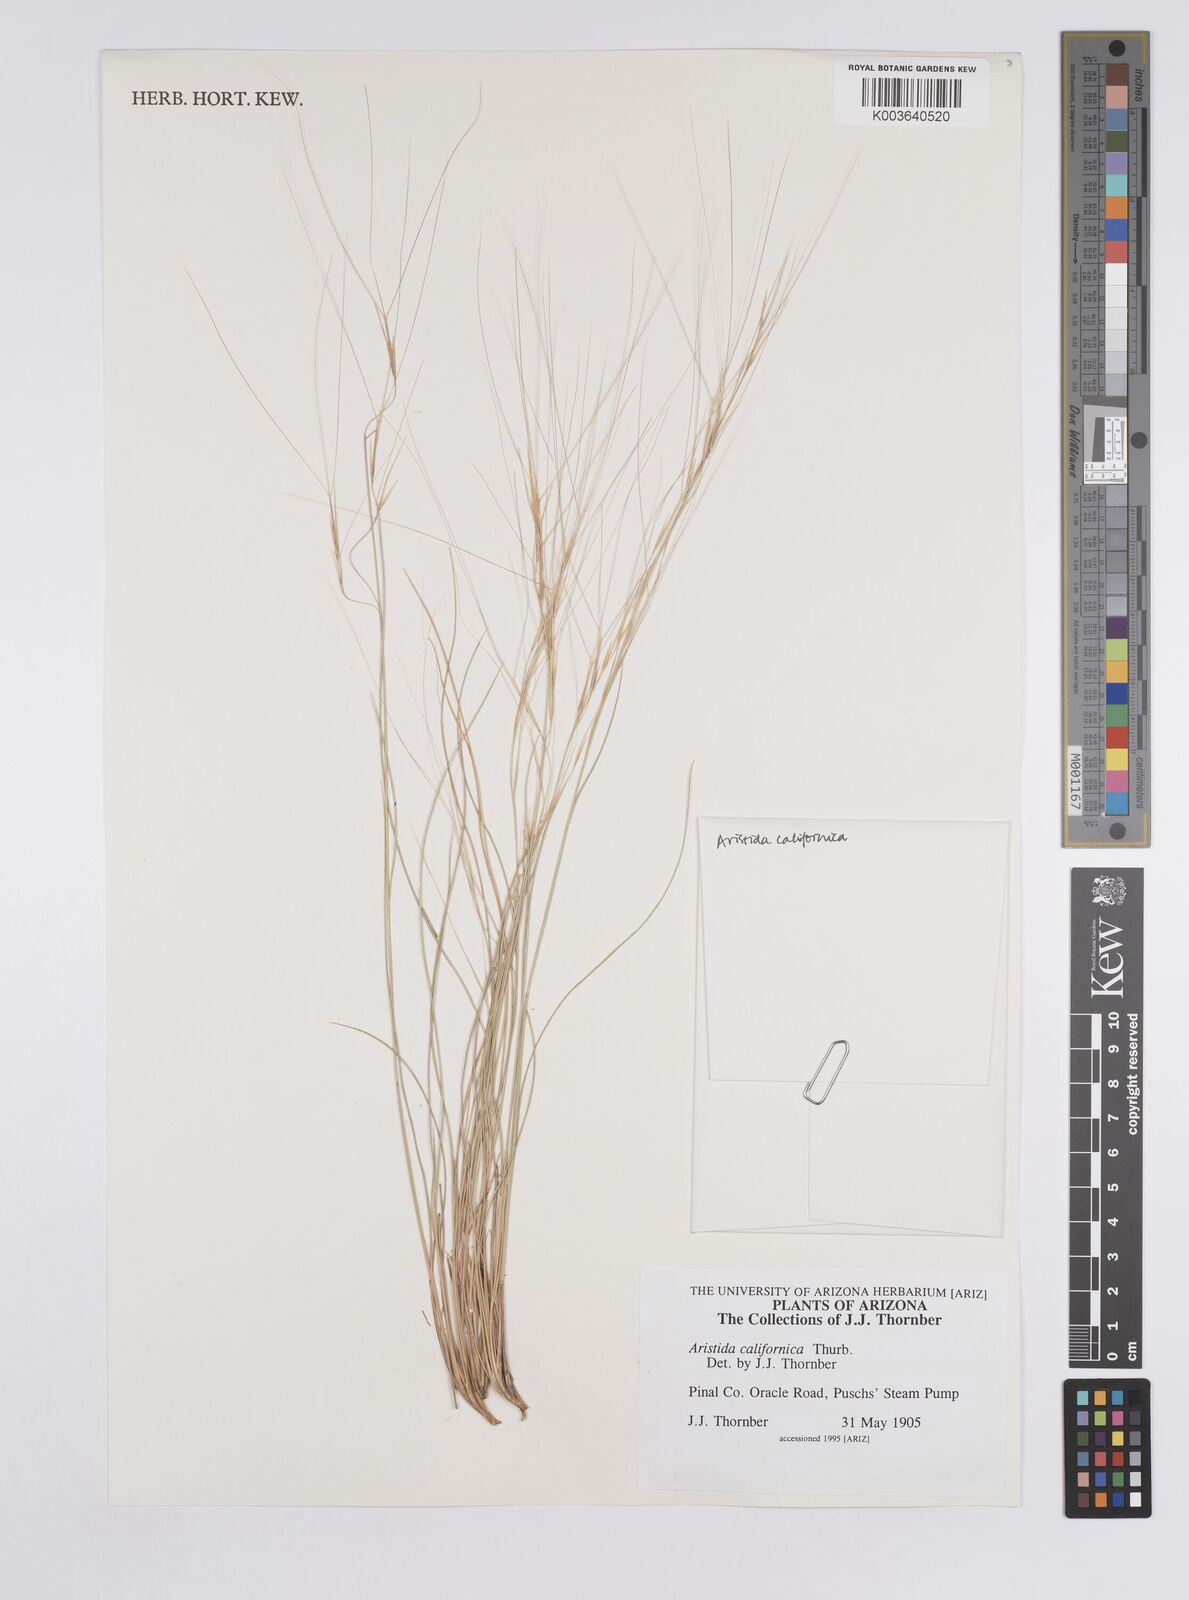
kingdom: Plantae
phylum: Tracheophyta
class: Liliopsida
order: Poales
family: Poaceae
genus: Aristida
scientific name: Aristida californica
